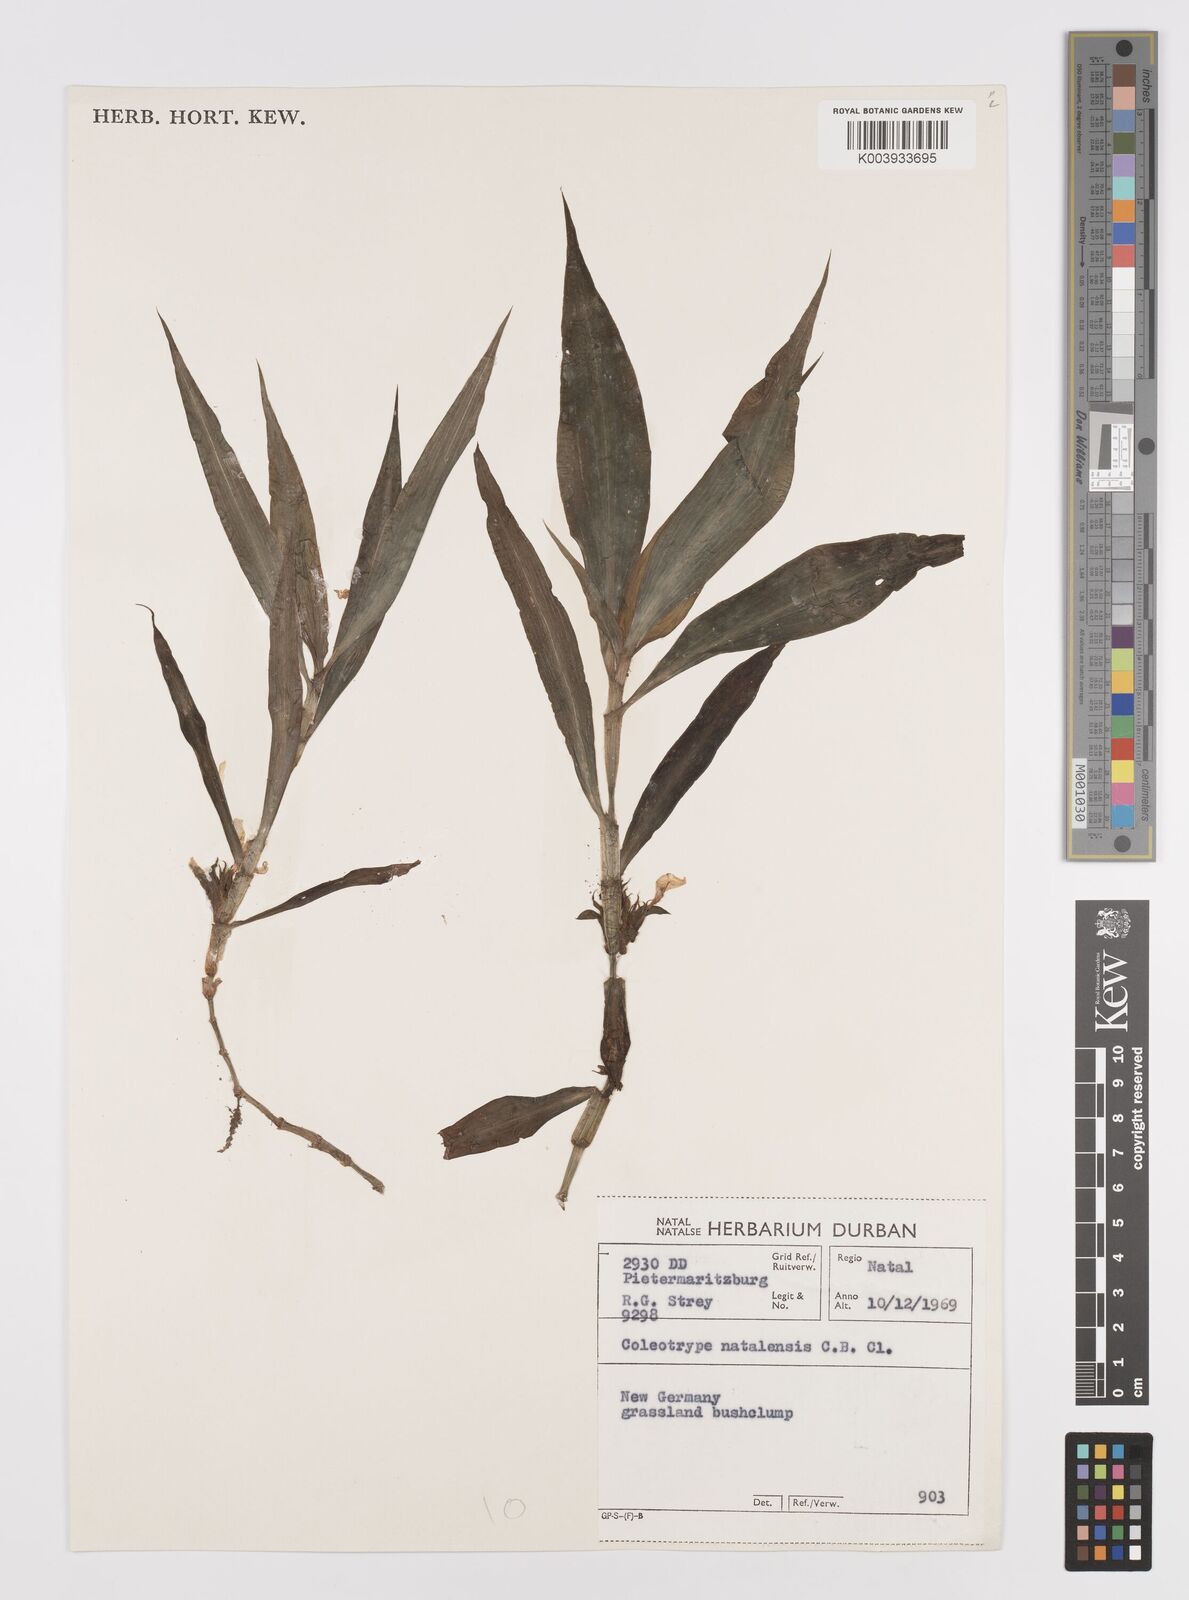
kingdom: Plantae
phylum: Tracheophyta
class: Liliopsida
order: Commelinales
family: Commelinaceae
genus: Coleotrype
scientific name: Coleotrype natalensis
